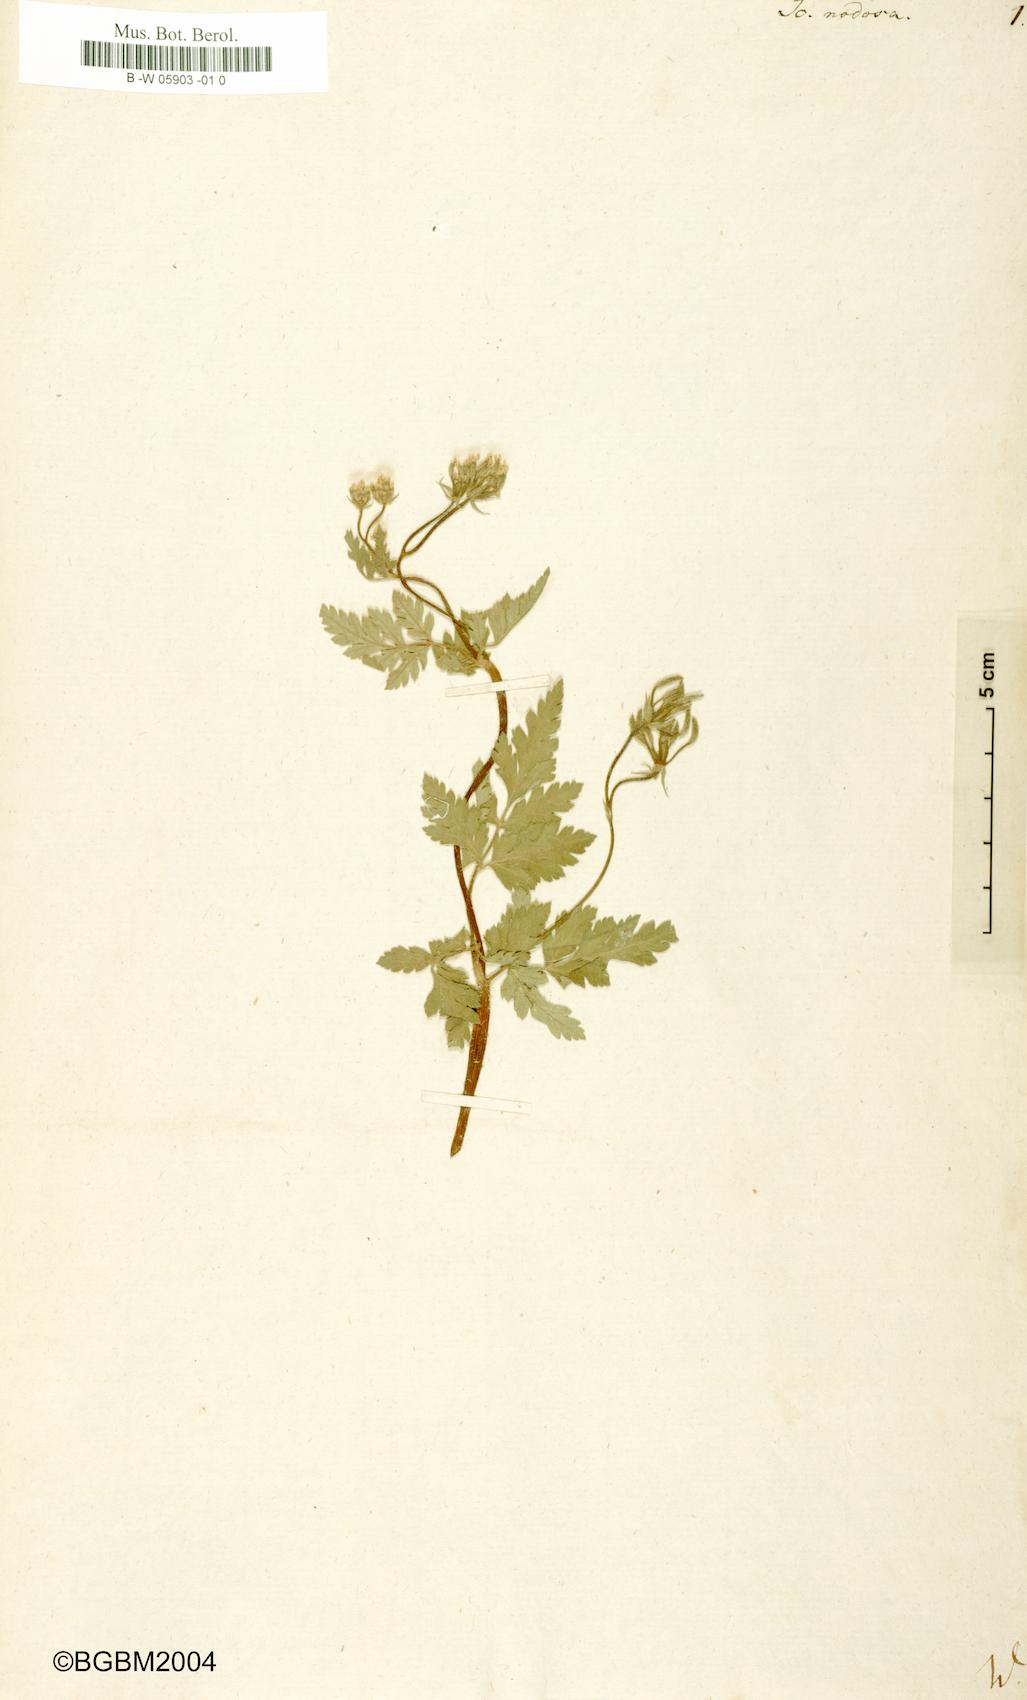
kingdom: Plantae
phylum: Tracheophyta
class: Magnoliopsida
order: Apiales
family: Apiaceae
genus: Chaerophyllum
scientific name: Chaerophyllum nodosum
